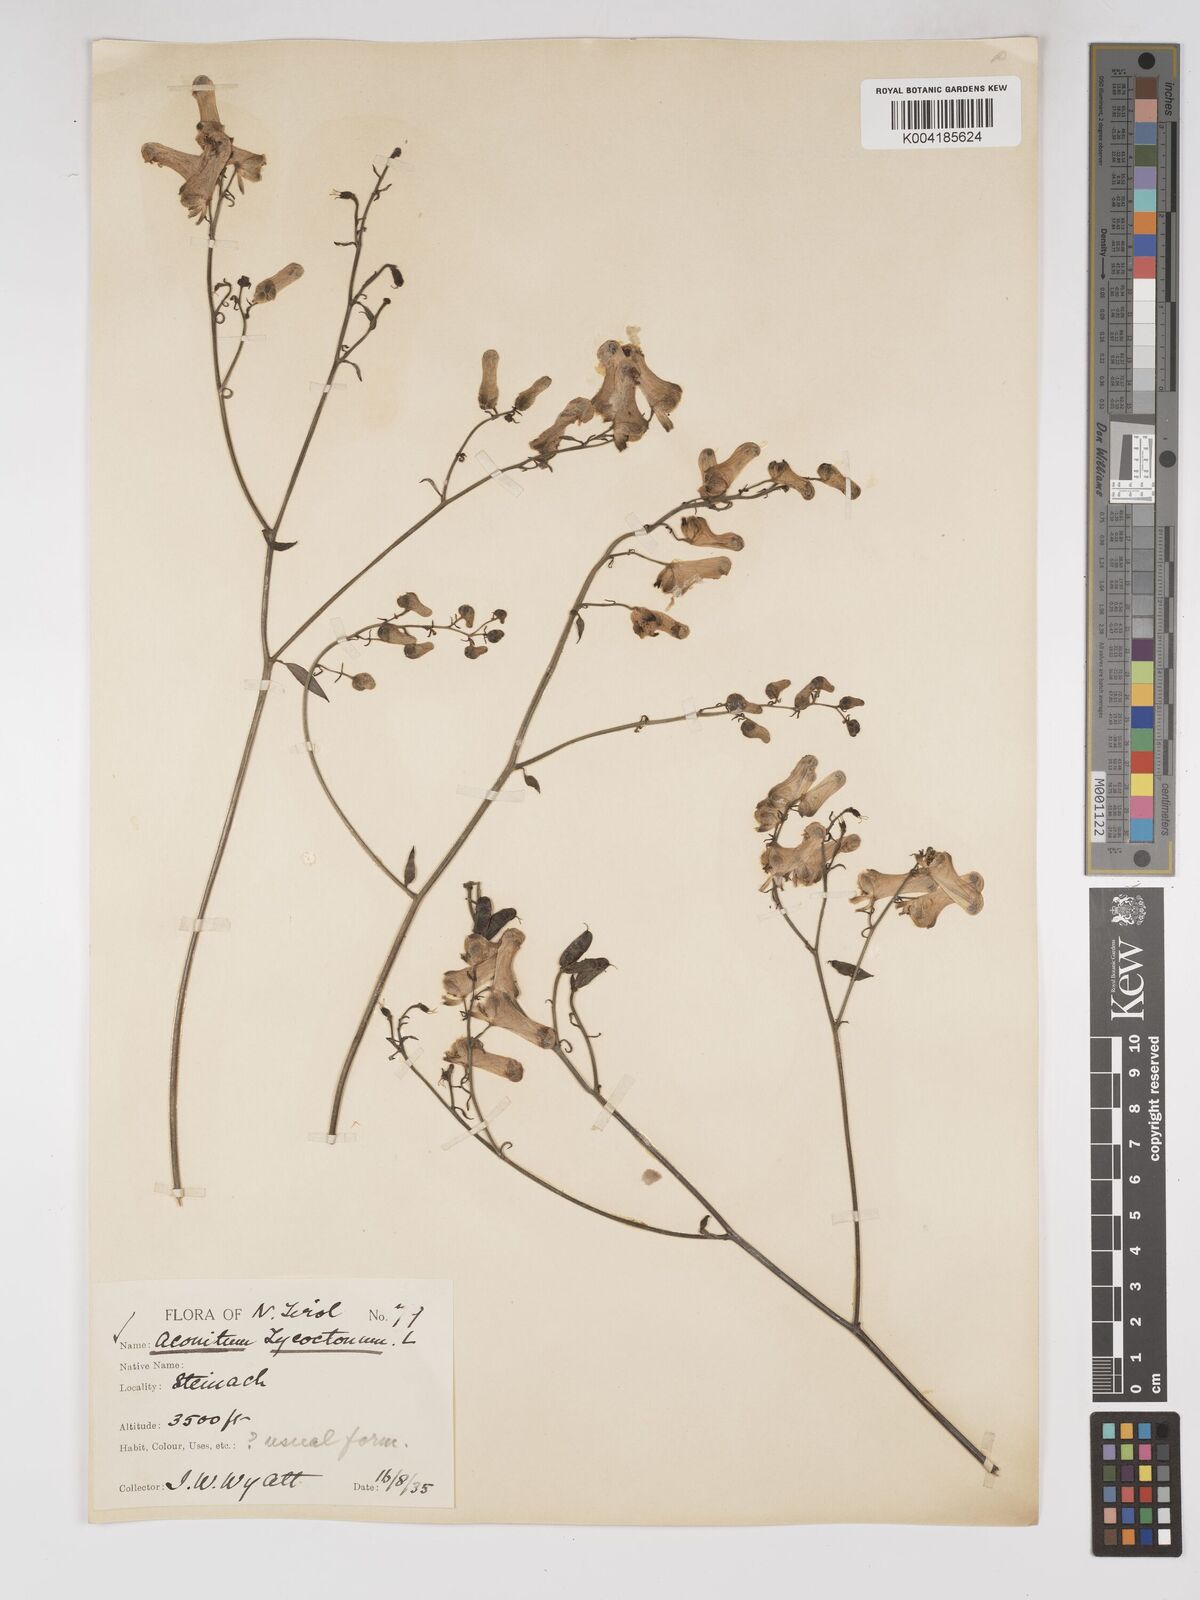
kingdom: Plantae
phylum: Tracheophyta
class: Magnoliopsida
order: Ranunculales
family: Ranunculaceae
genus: Aconitum
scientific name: Aconitum lycoctonum
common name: Wolf's-bane
